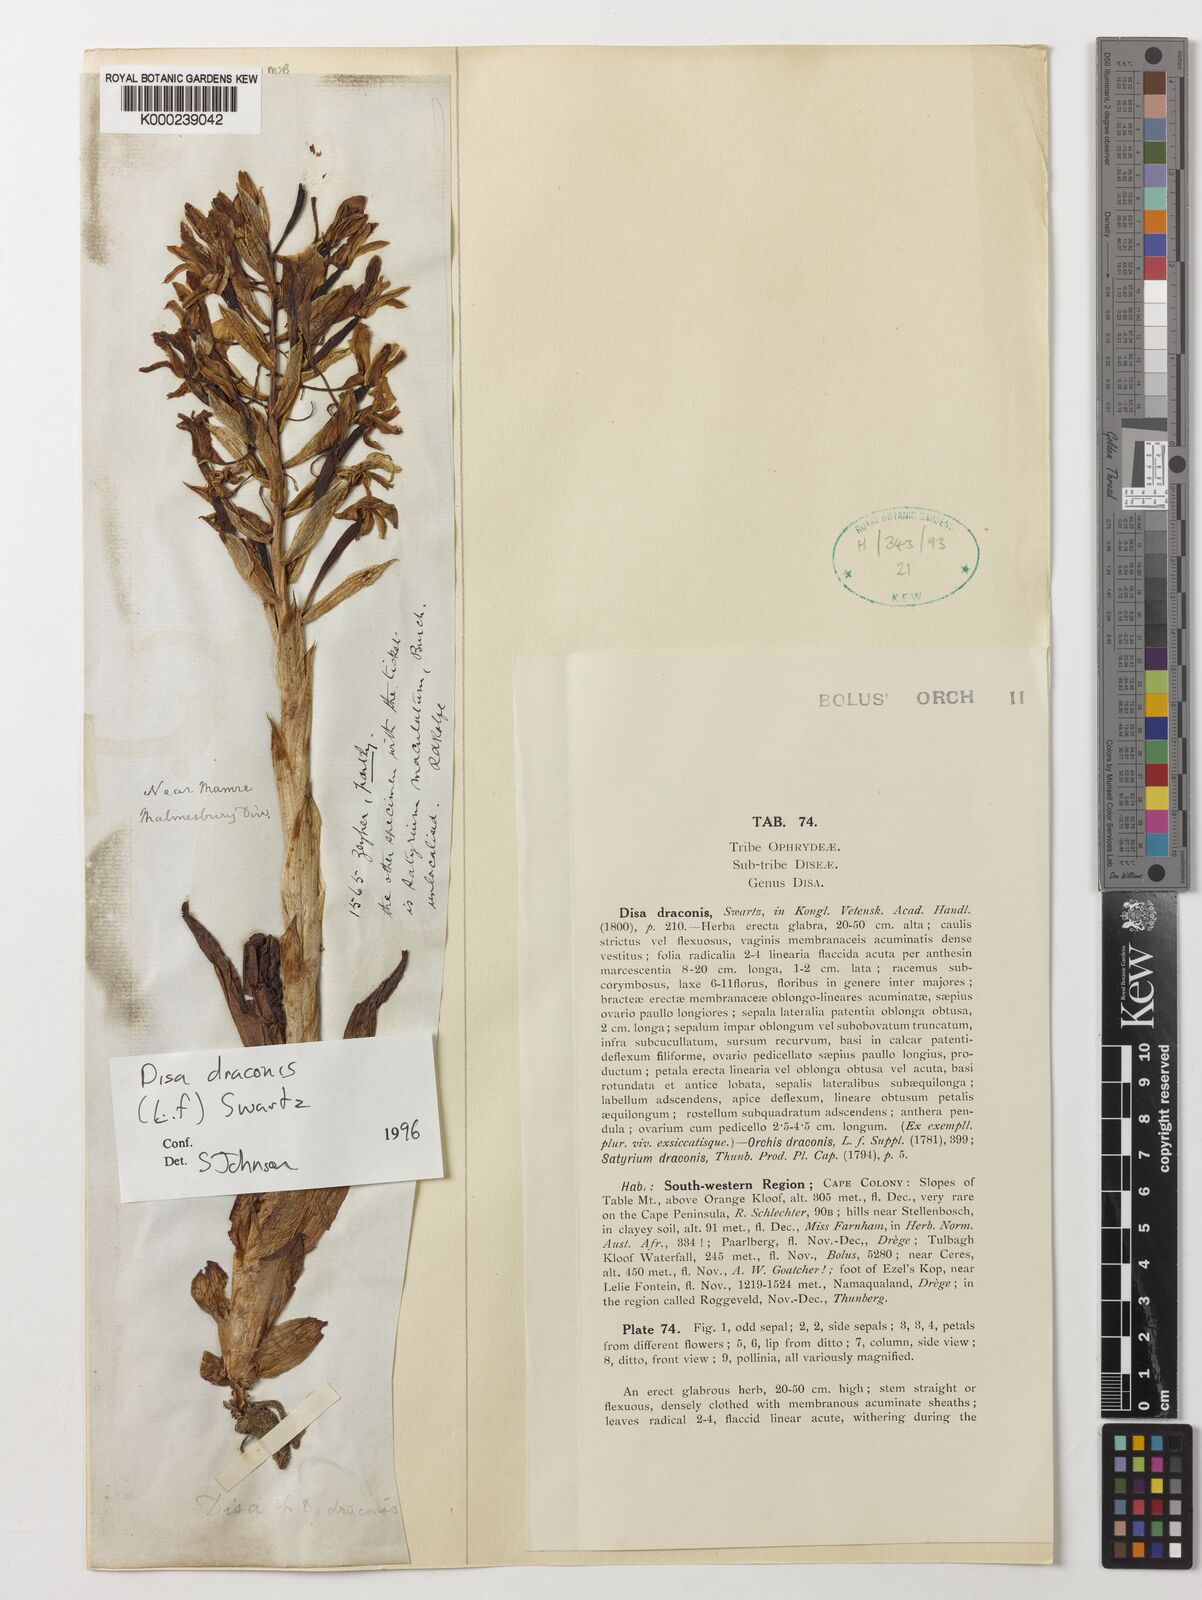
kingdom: Plantae
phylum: Tracheophyta
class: Liliopsida
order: Asparagales
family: Orchidaceae
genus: Disa
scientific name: Disa draconis
